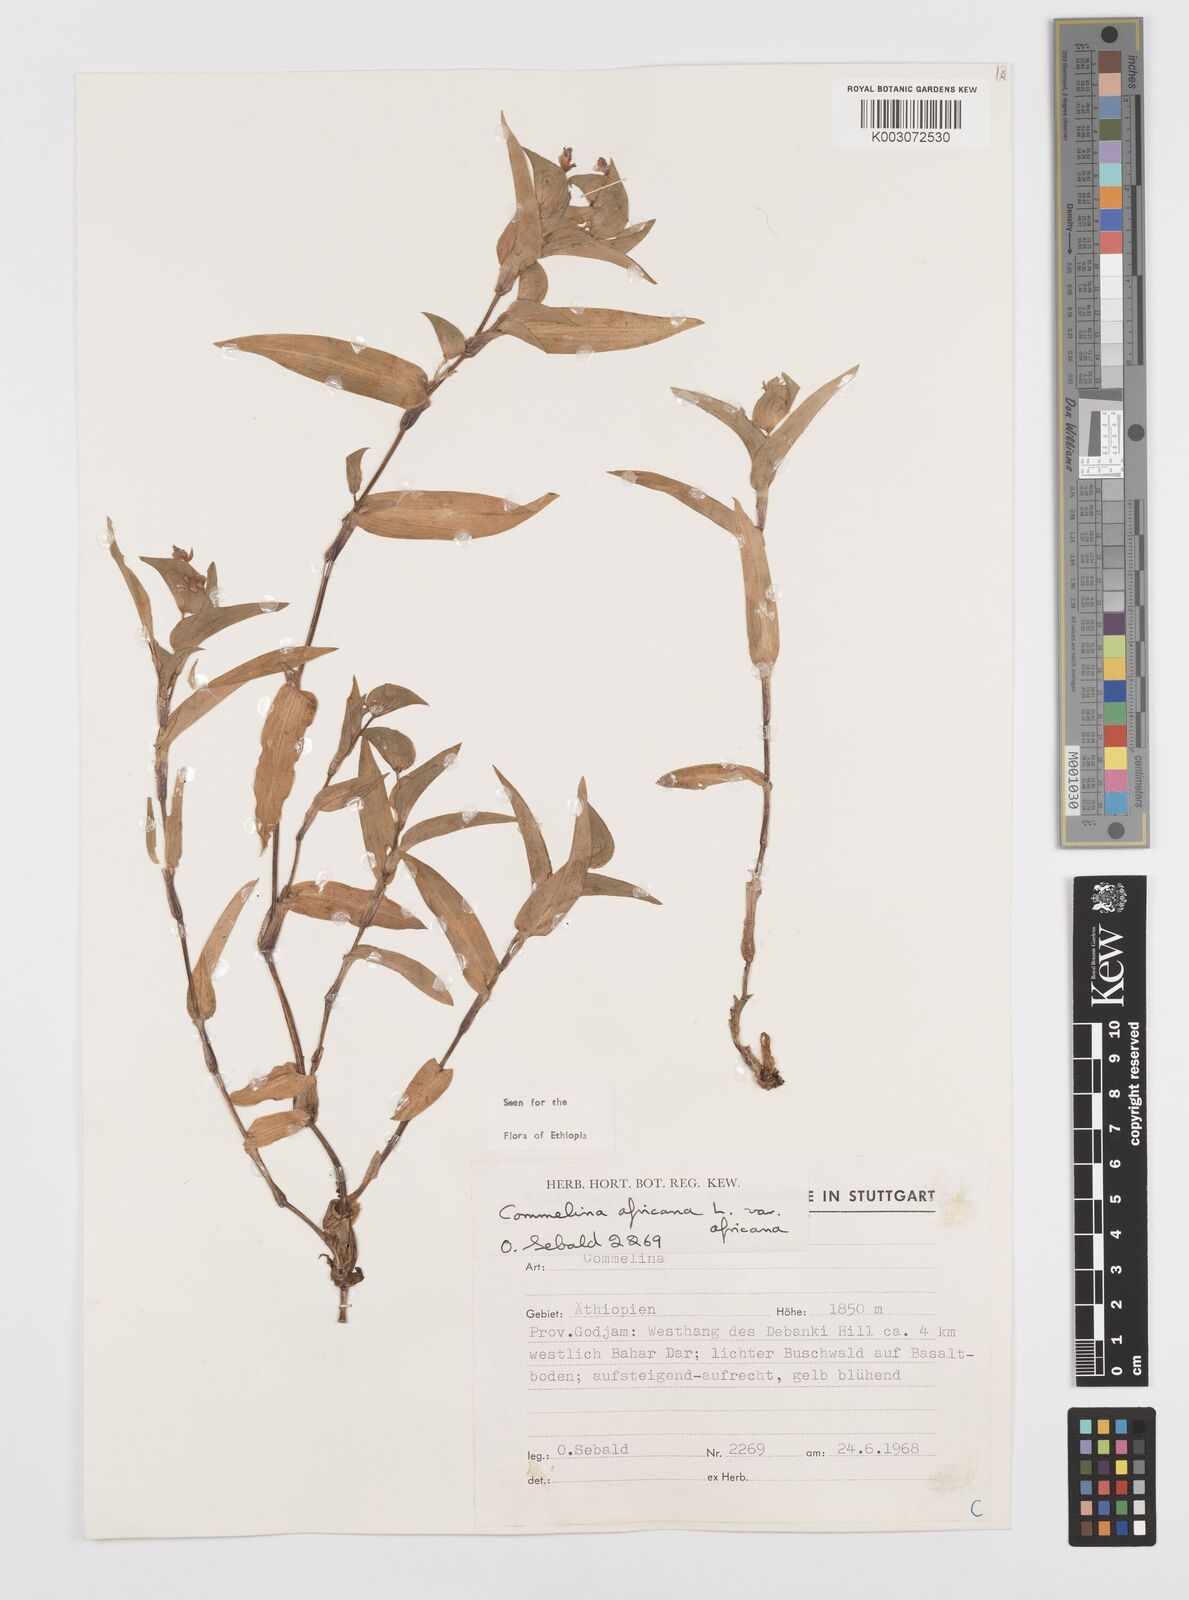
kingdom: Plantae
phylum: Tracheophyta
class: Liliopsida
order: Commelinales
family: Commelinaceae
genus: Commelina
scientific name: Commelina africana
